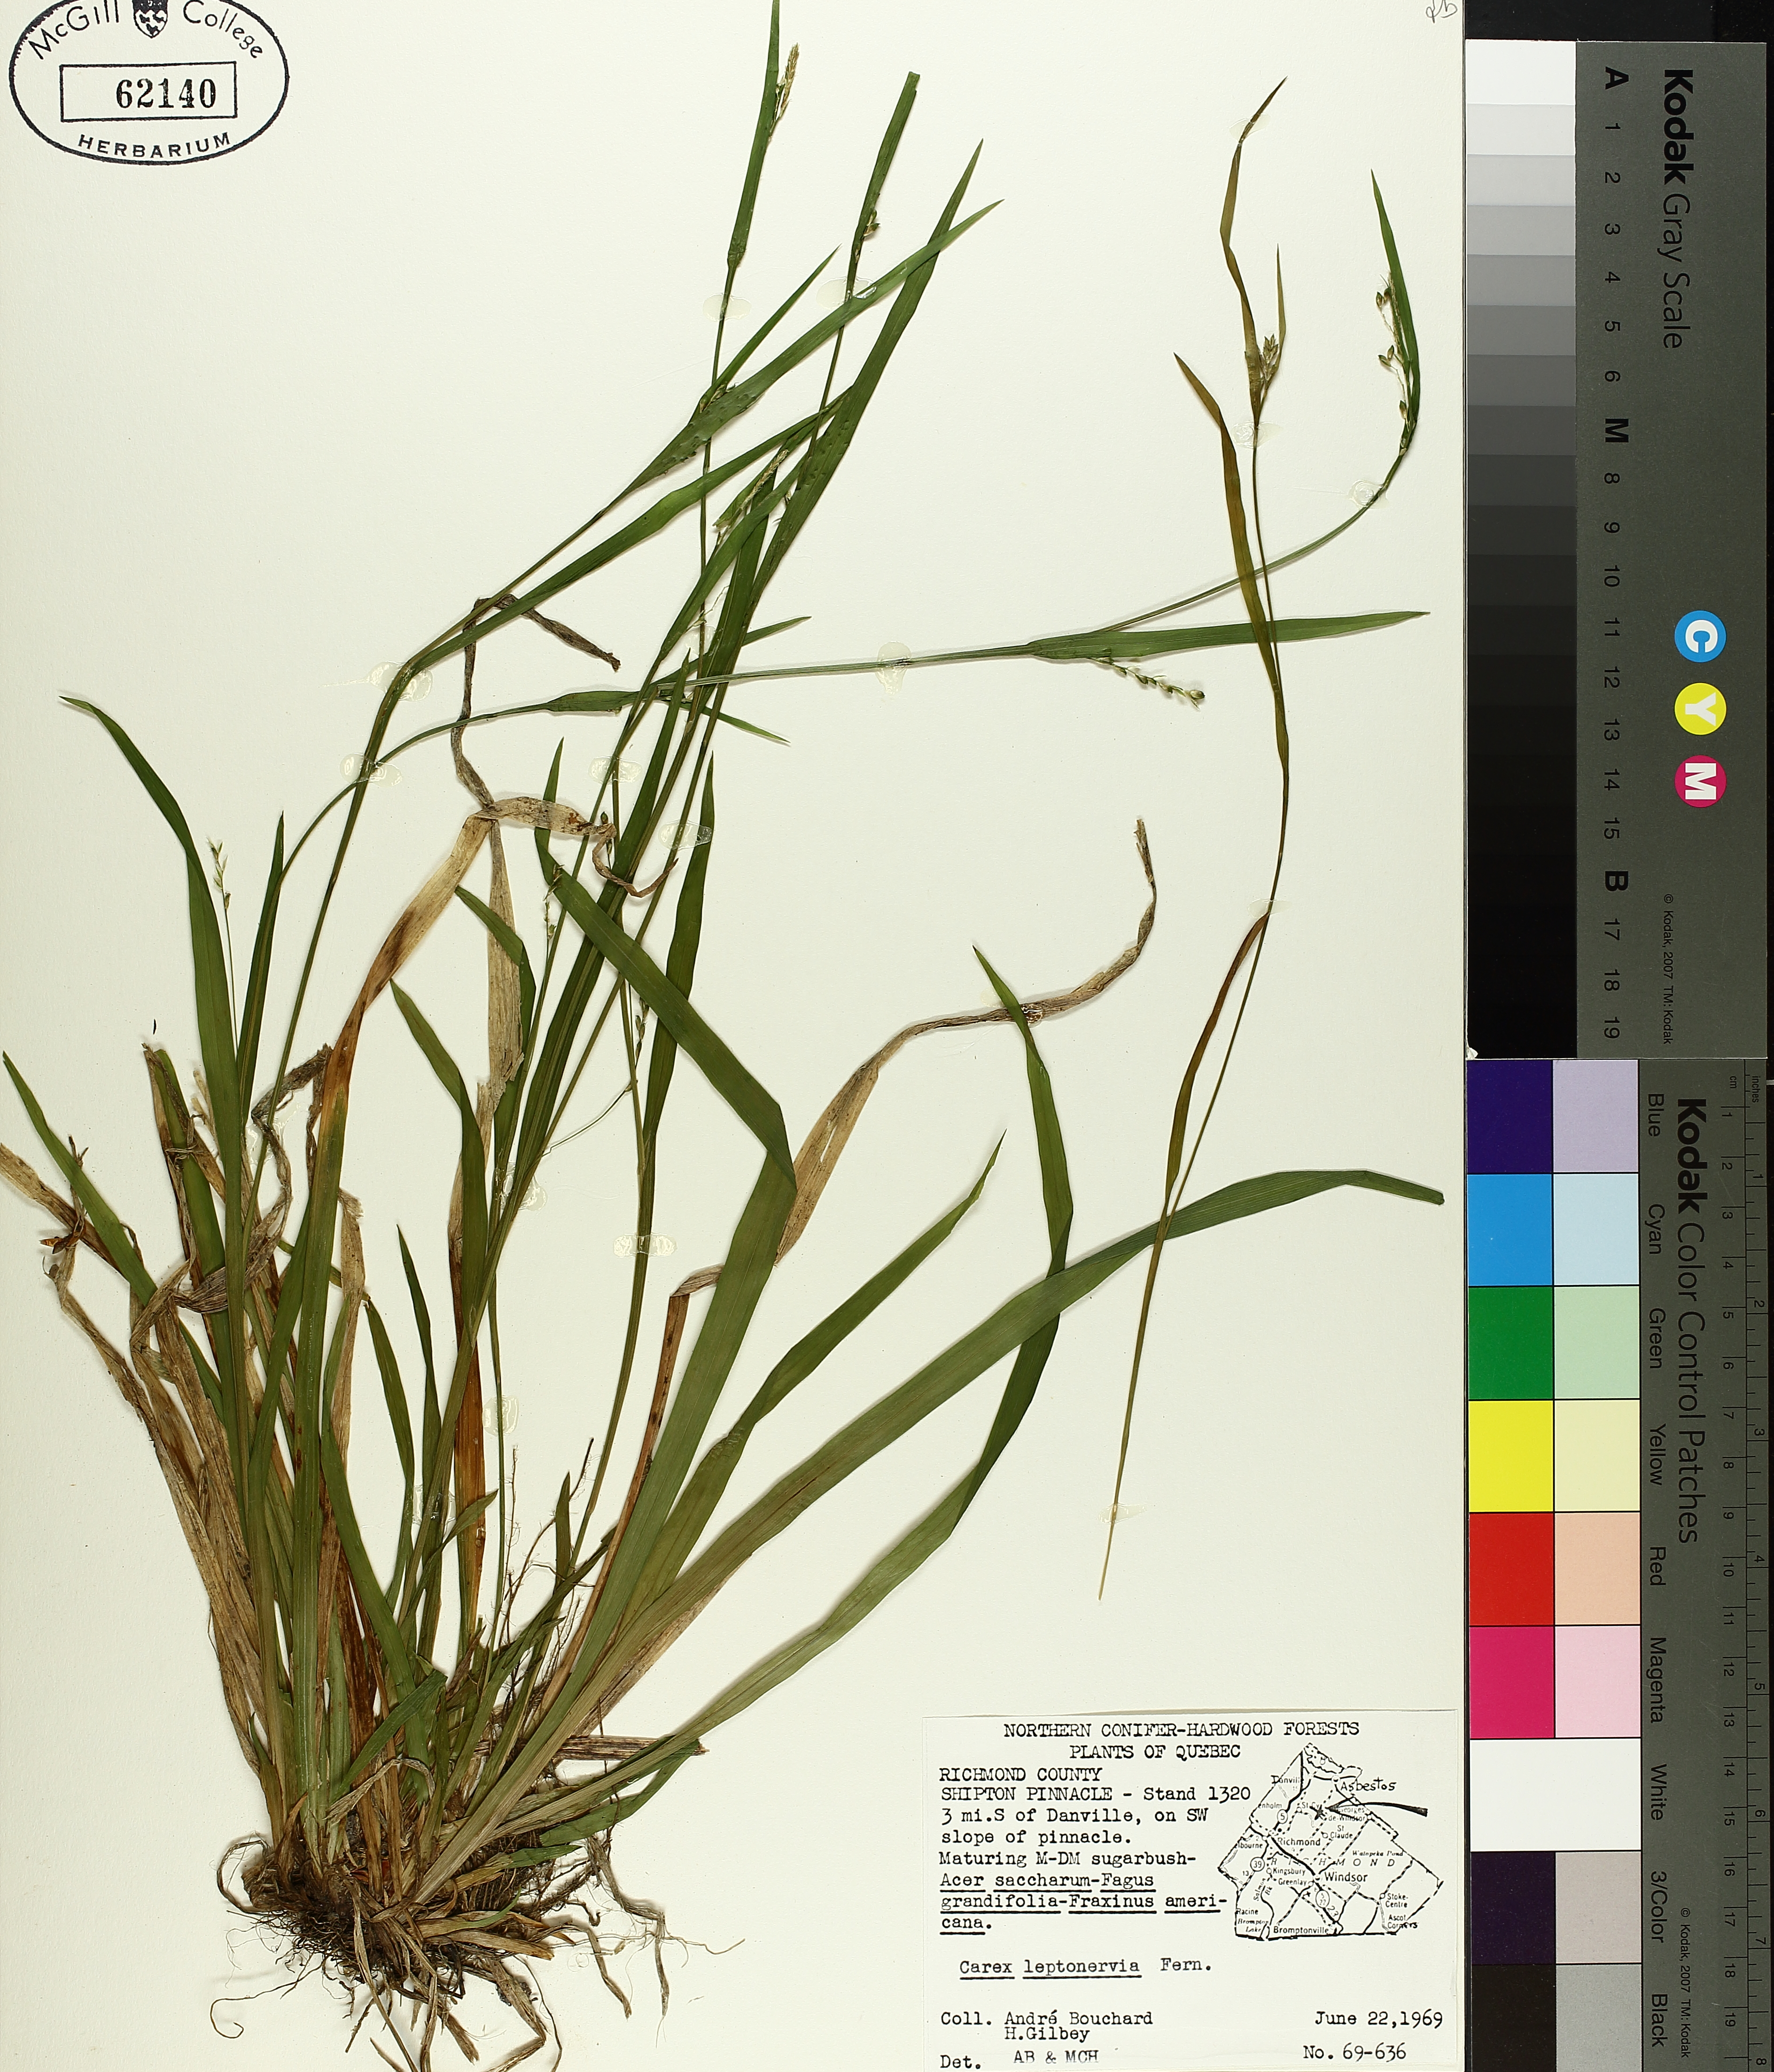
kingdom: Plantae
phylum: Tracheophyta
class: Liliopsida
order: Poales
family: Cyperaceae
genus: Carex
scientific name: Carex leptonervia
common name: Few-nerved wood sedge
